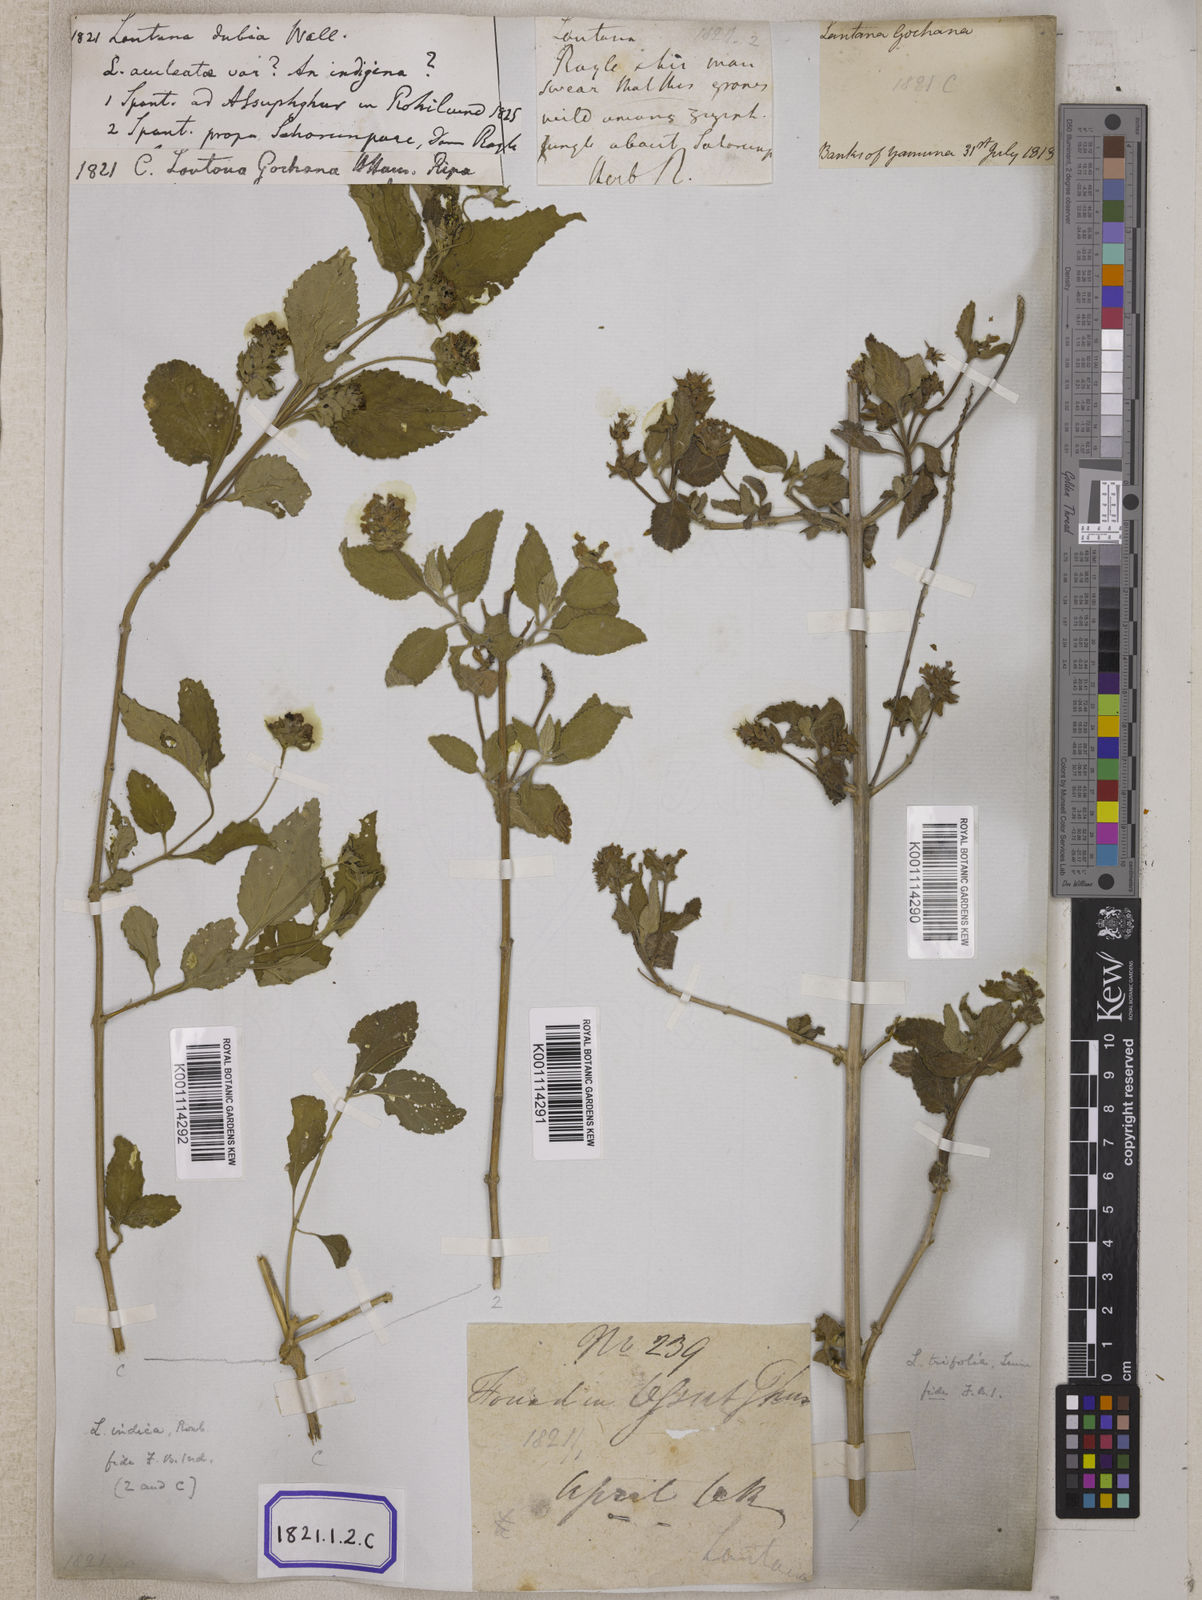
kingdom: Plantae
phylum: Tracheophyta
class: Magnoliopsida
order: Lamiales
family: Verbenaceae
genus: Lantana
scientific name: Lantana trifolia
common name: Sweet-sage
